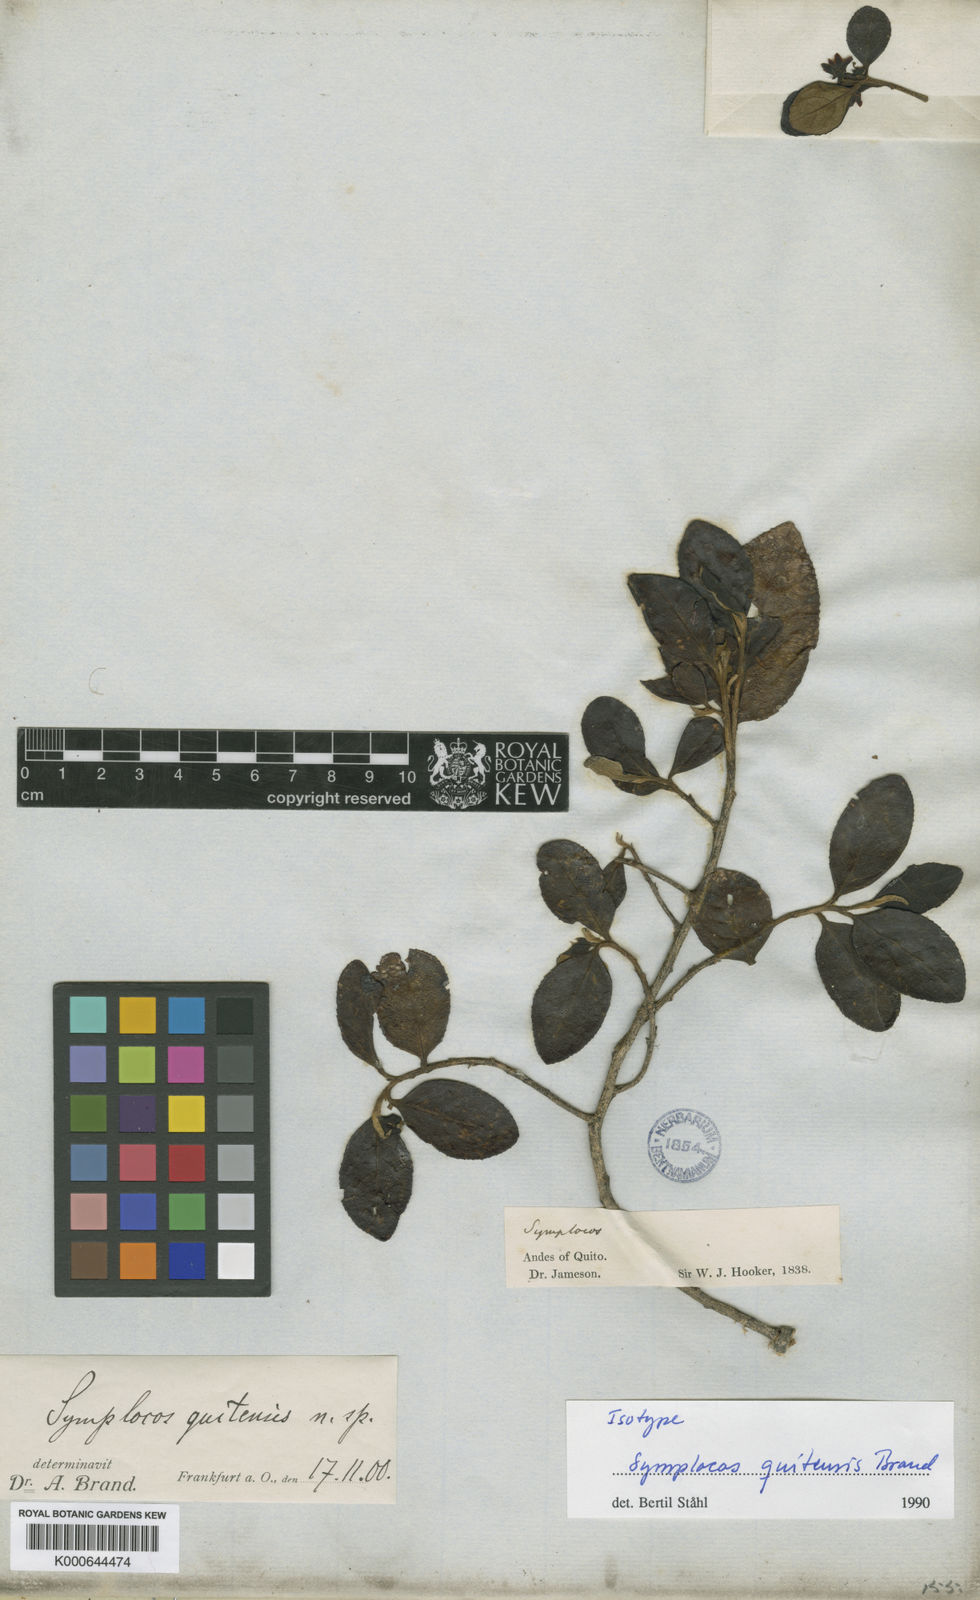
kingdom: Plantae
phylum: Tracheophyta
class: Magnoliopsida
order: Ericales
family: Symplocaceae
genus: Symplocos
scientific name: Symplocos quitensis
